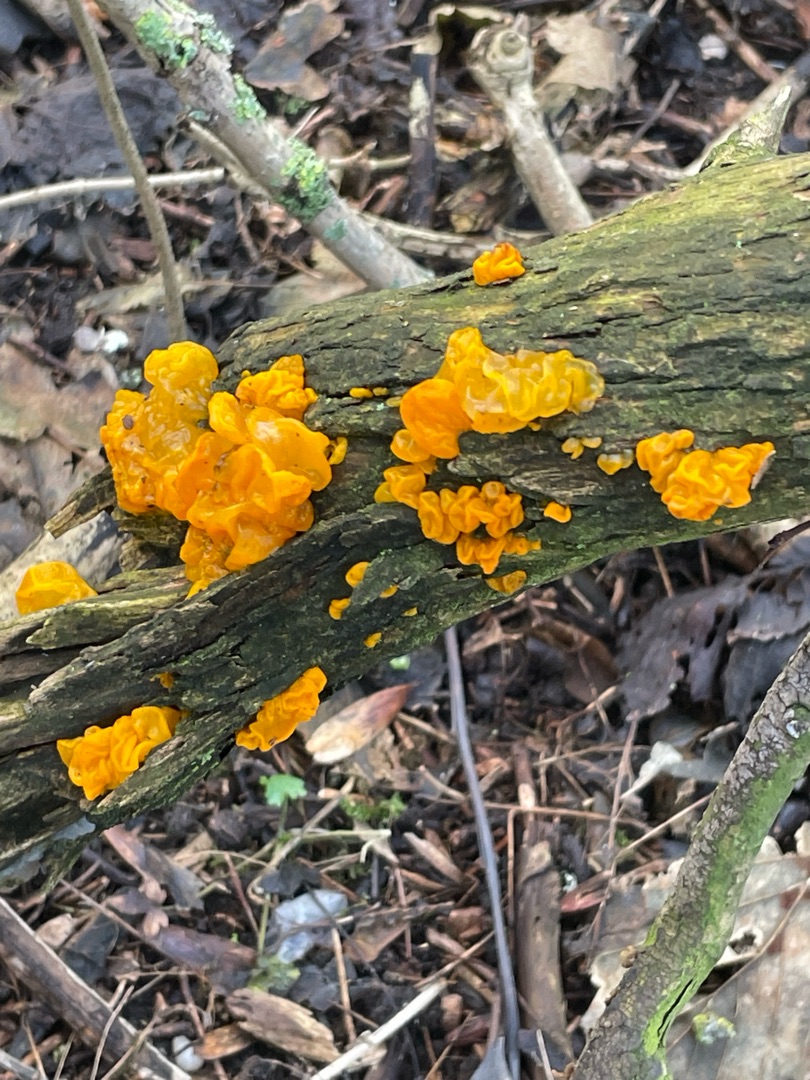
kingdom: Fungi
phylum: Basidiomycota
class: Tremellomycetes
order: Tremellales
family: Tremellaceae
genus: Tremella
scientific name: Tremella mesenterica
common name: Gul bævresvamp
